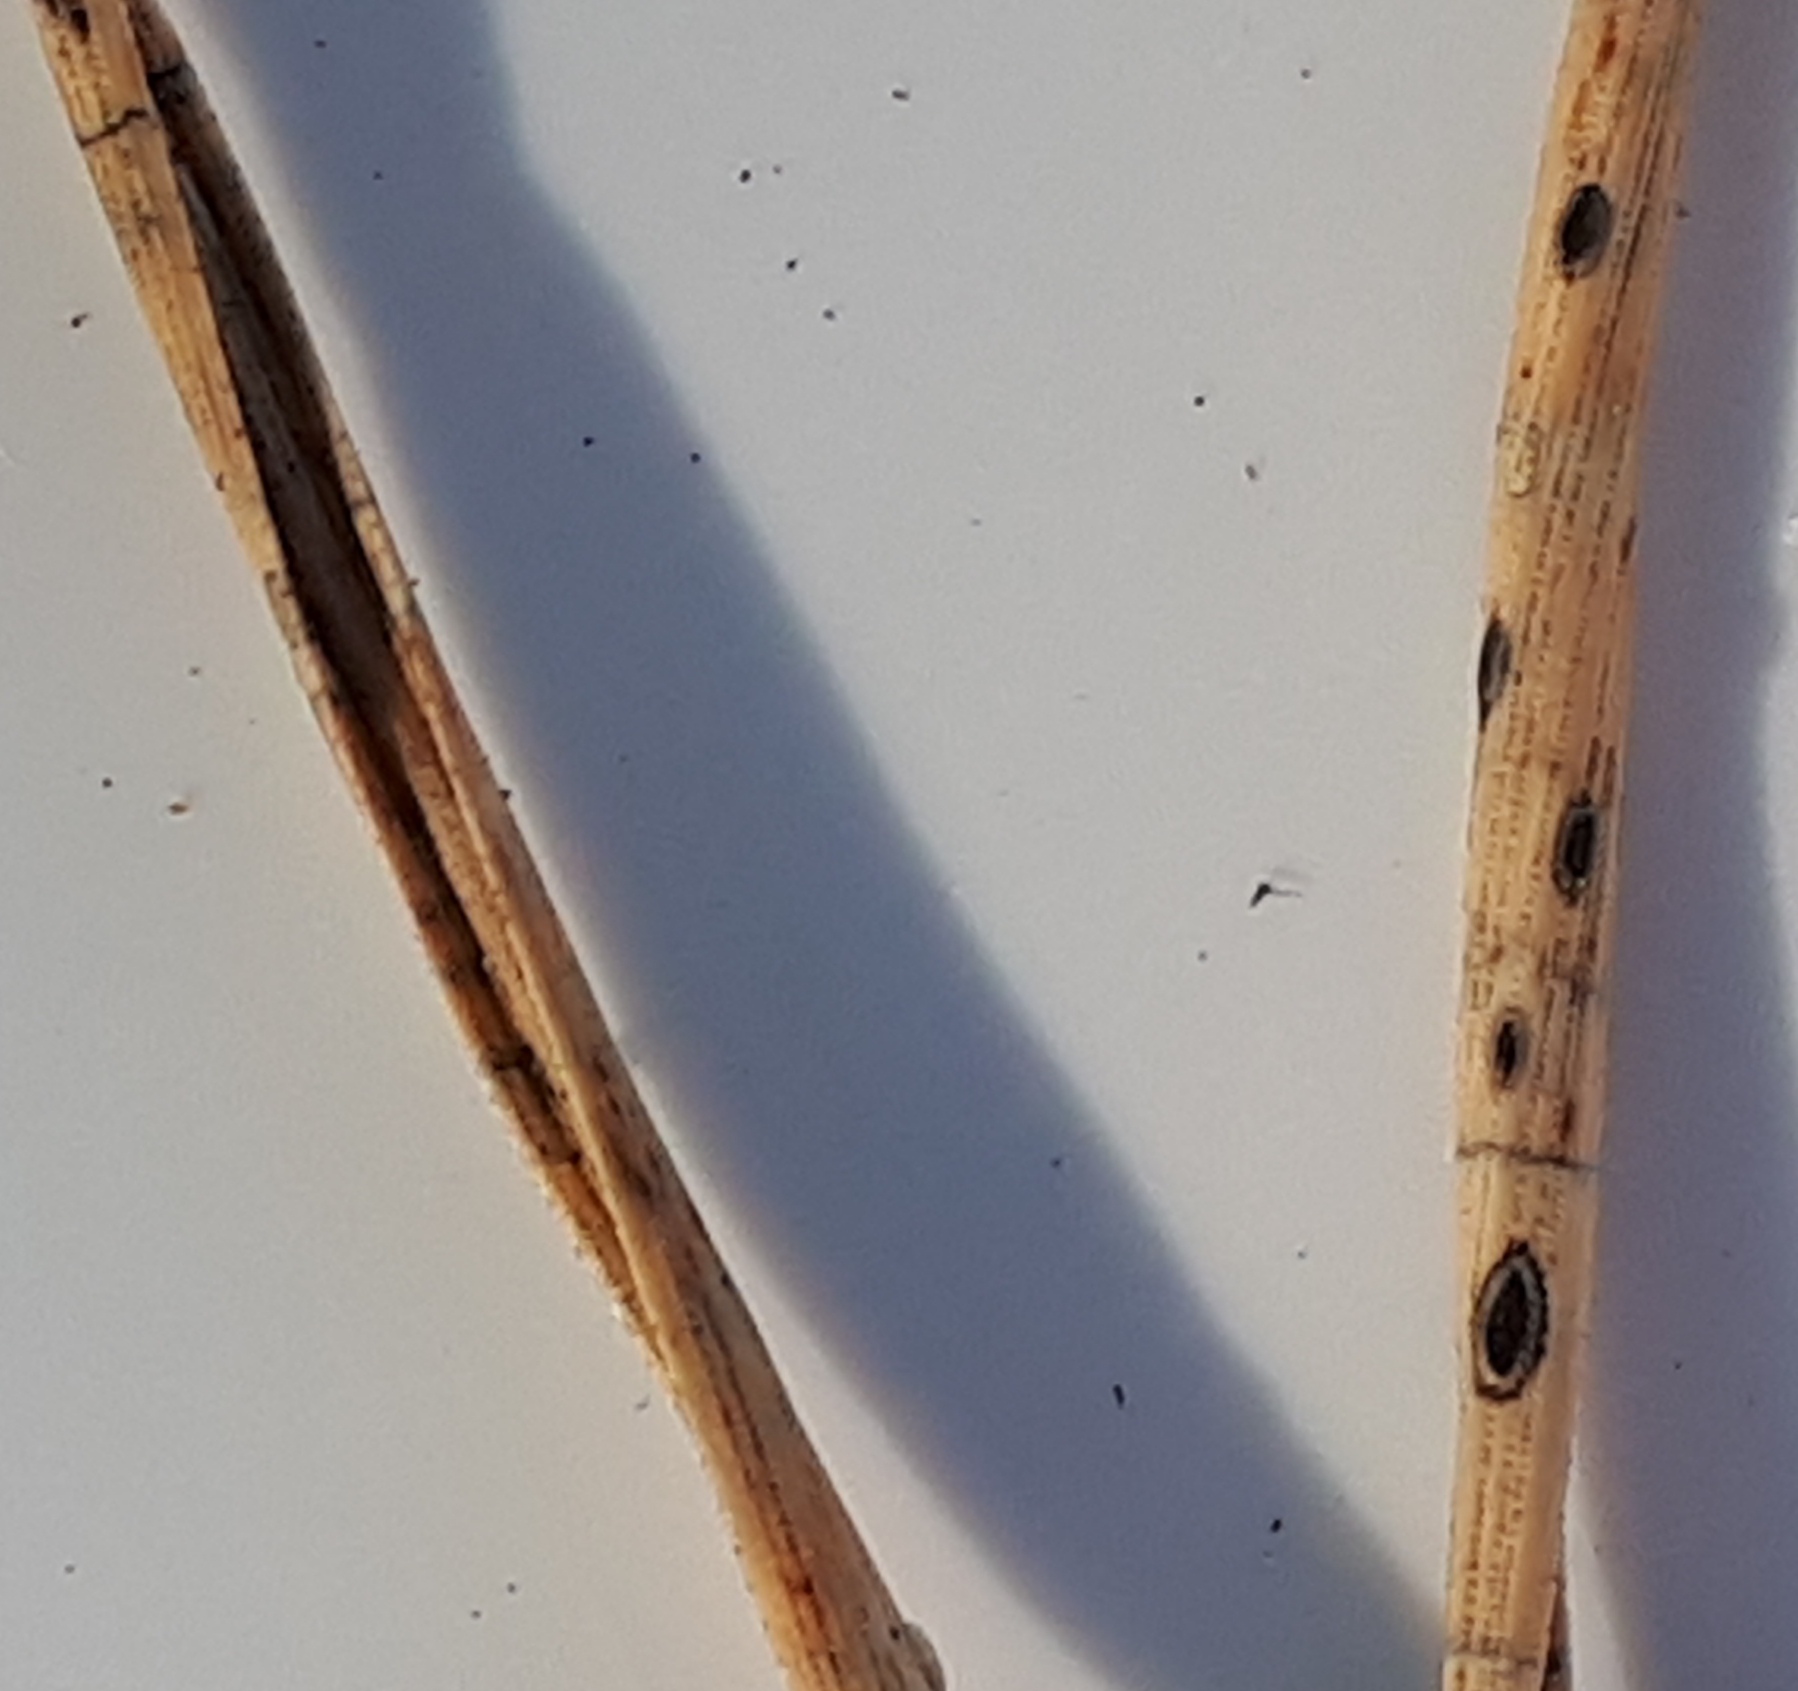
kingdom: Fungi
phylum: Ascomycota
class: Leotiomycetes
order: Rhytismatales
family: Rhytismataceae
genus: Lophodermium
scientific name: Lophodermium pinastri
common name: fyrre-fureplet
